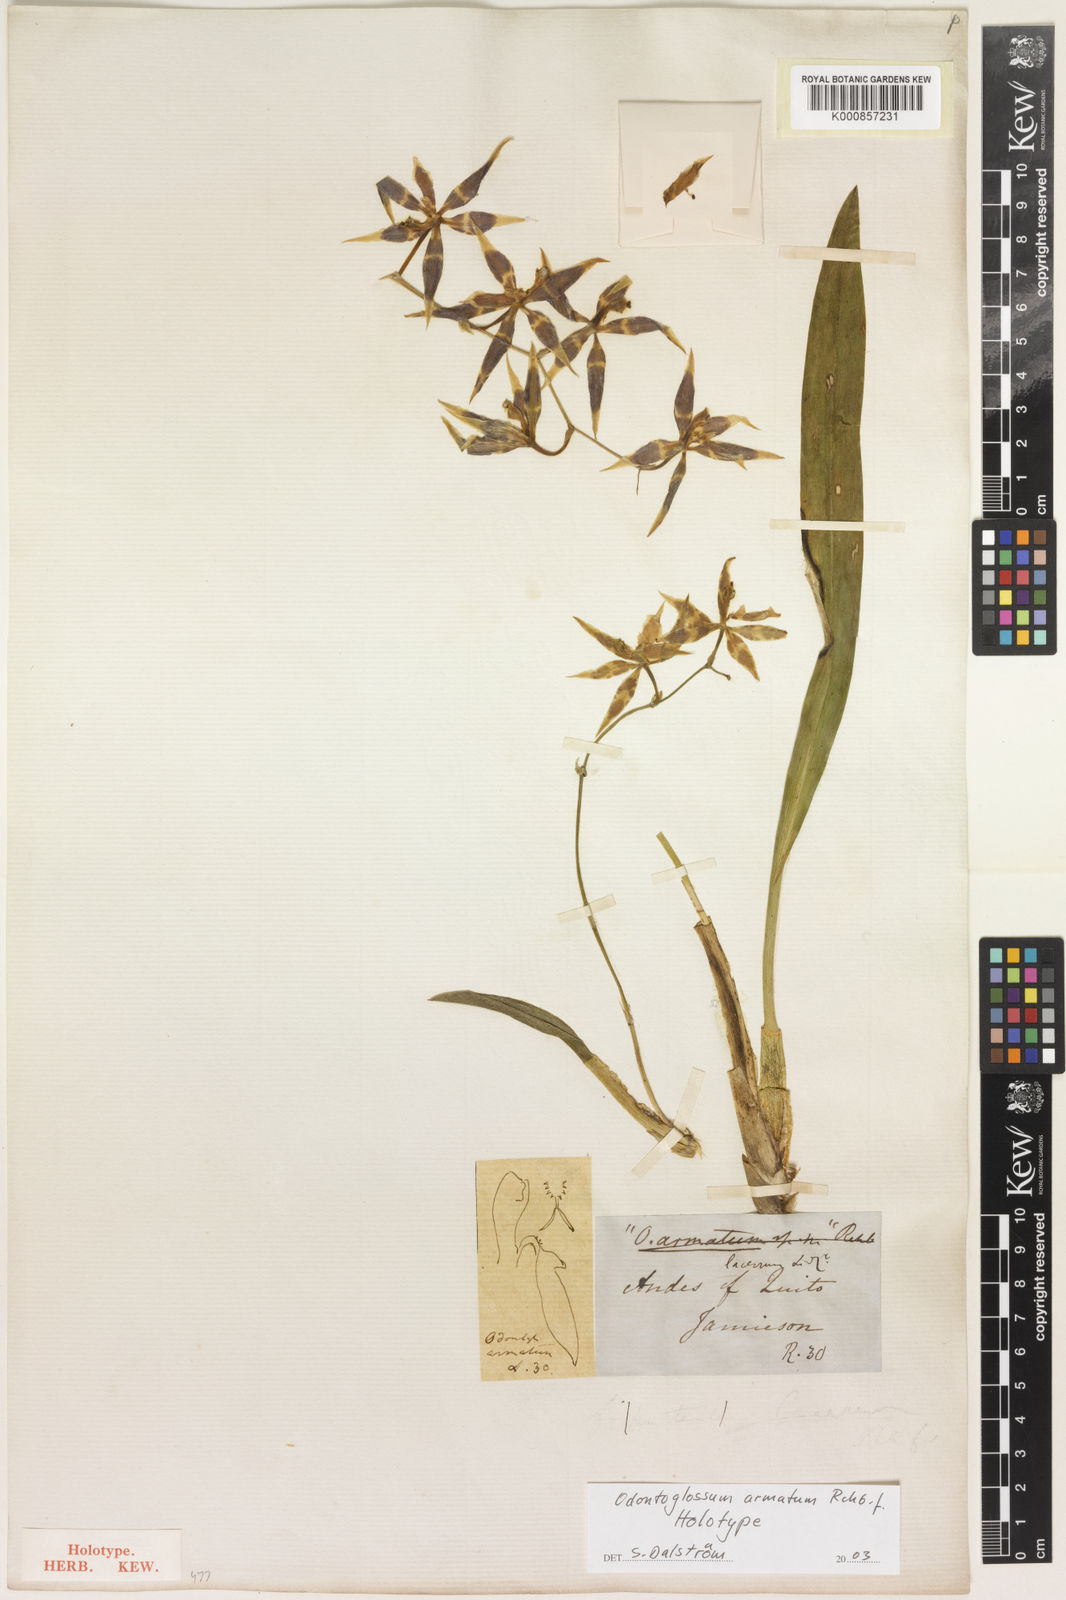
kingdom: Plantae
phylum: Tracheophyta
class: Liliopsida
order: Asparagales
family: Orchidaceae
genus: Oncidium
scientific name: Oncidium armatum
